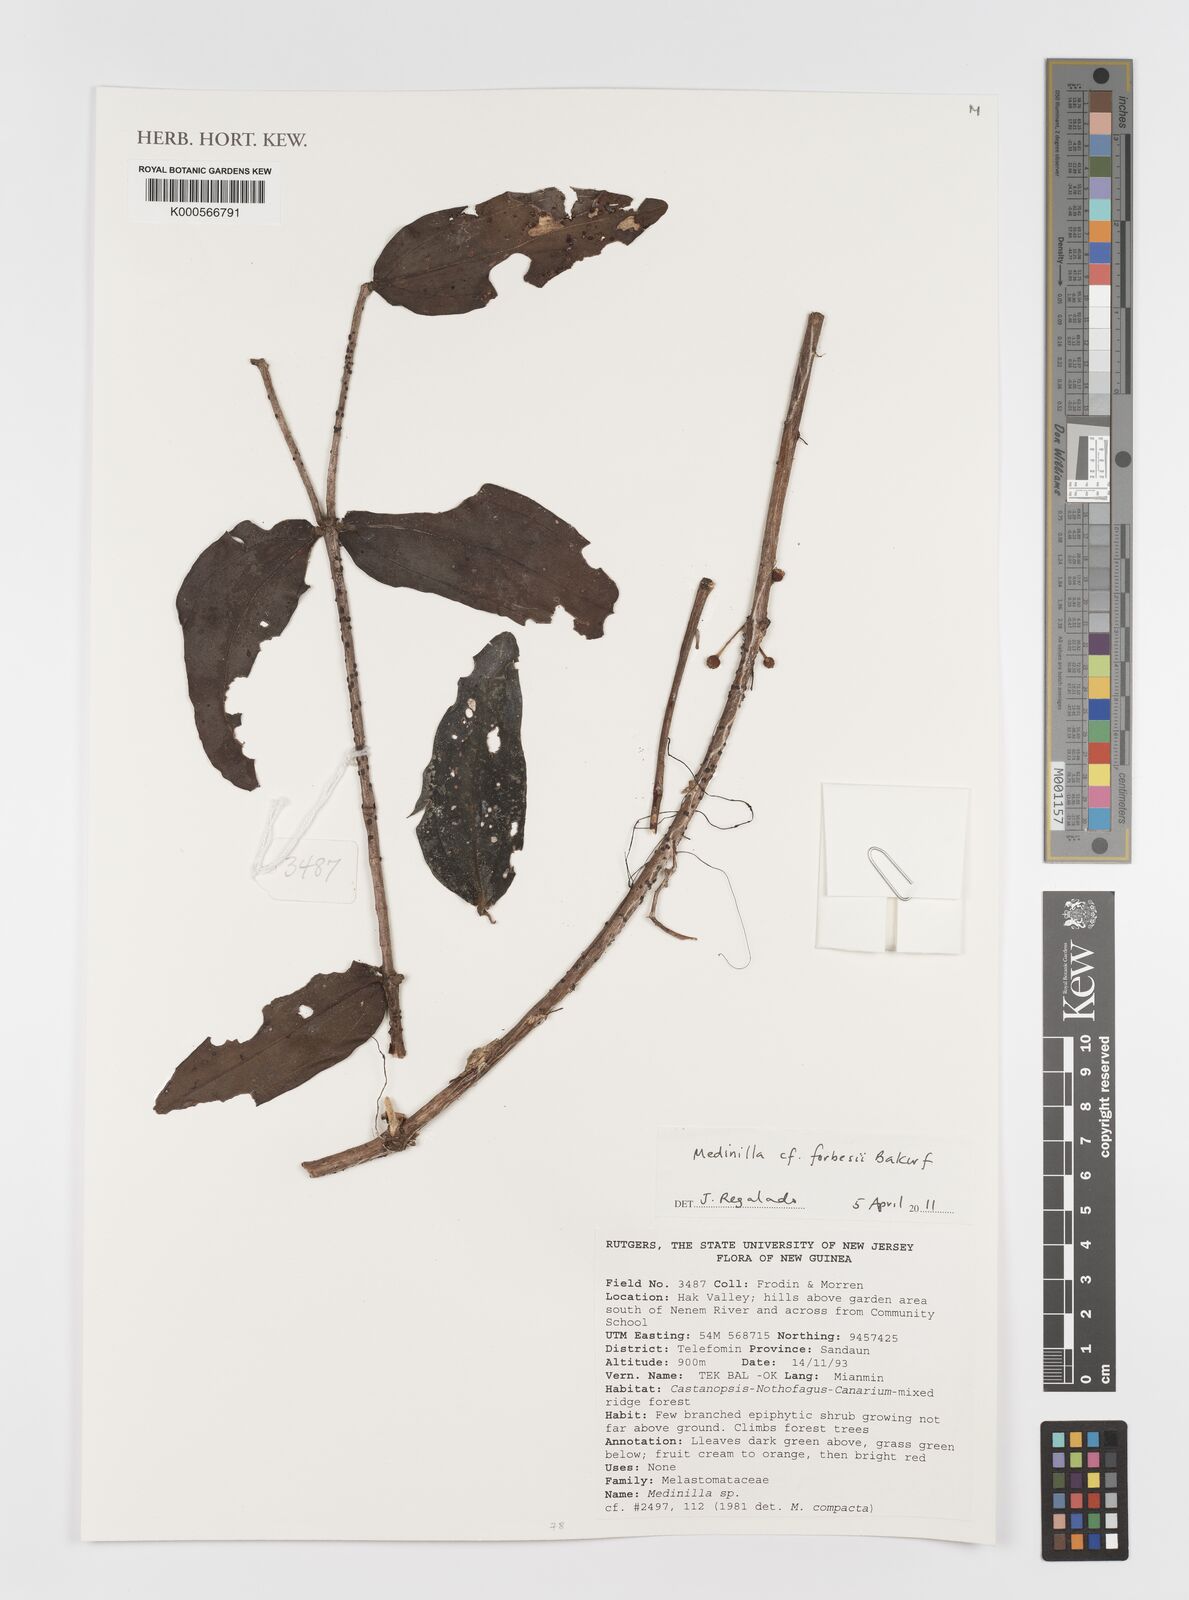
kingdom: Plantae
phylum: Tracheophyta
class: Magnoliopsida
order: Myrtales
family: Melastomataceae
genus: Medinilla
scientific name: Medinilla forbesii
